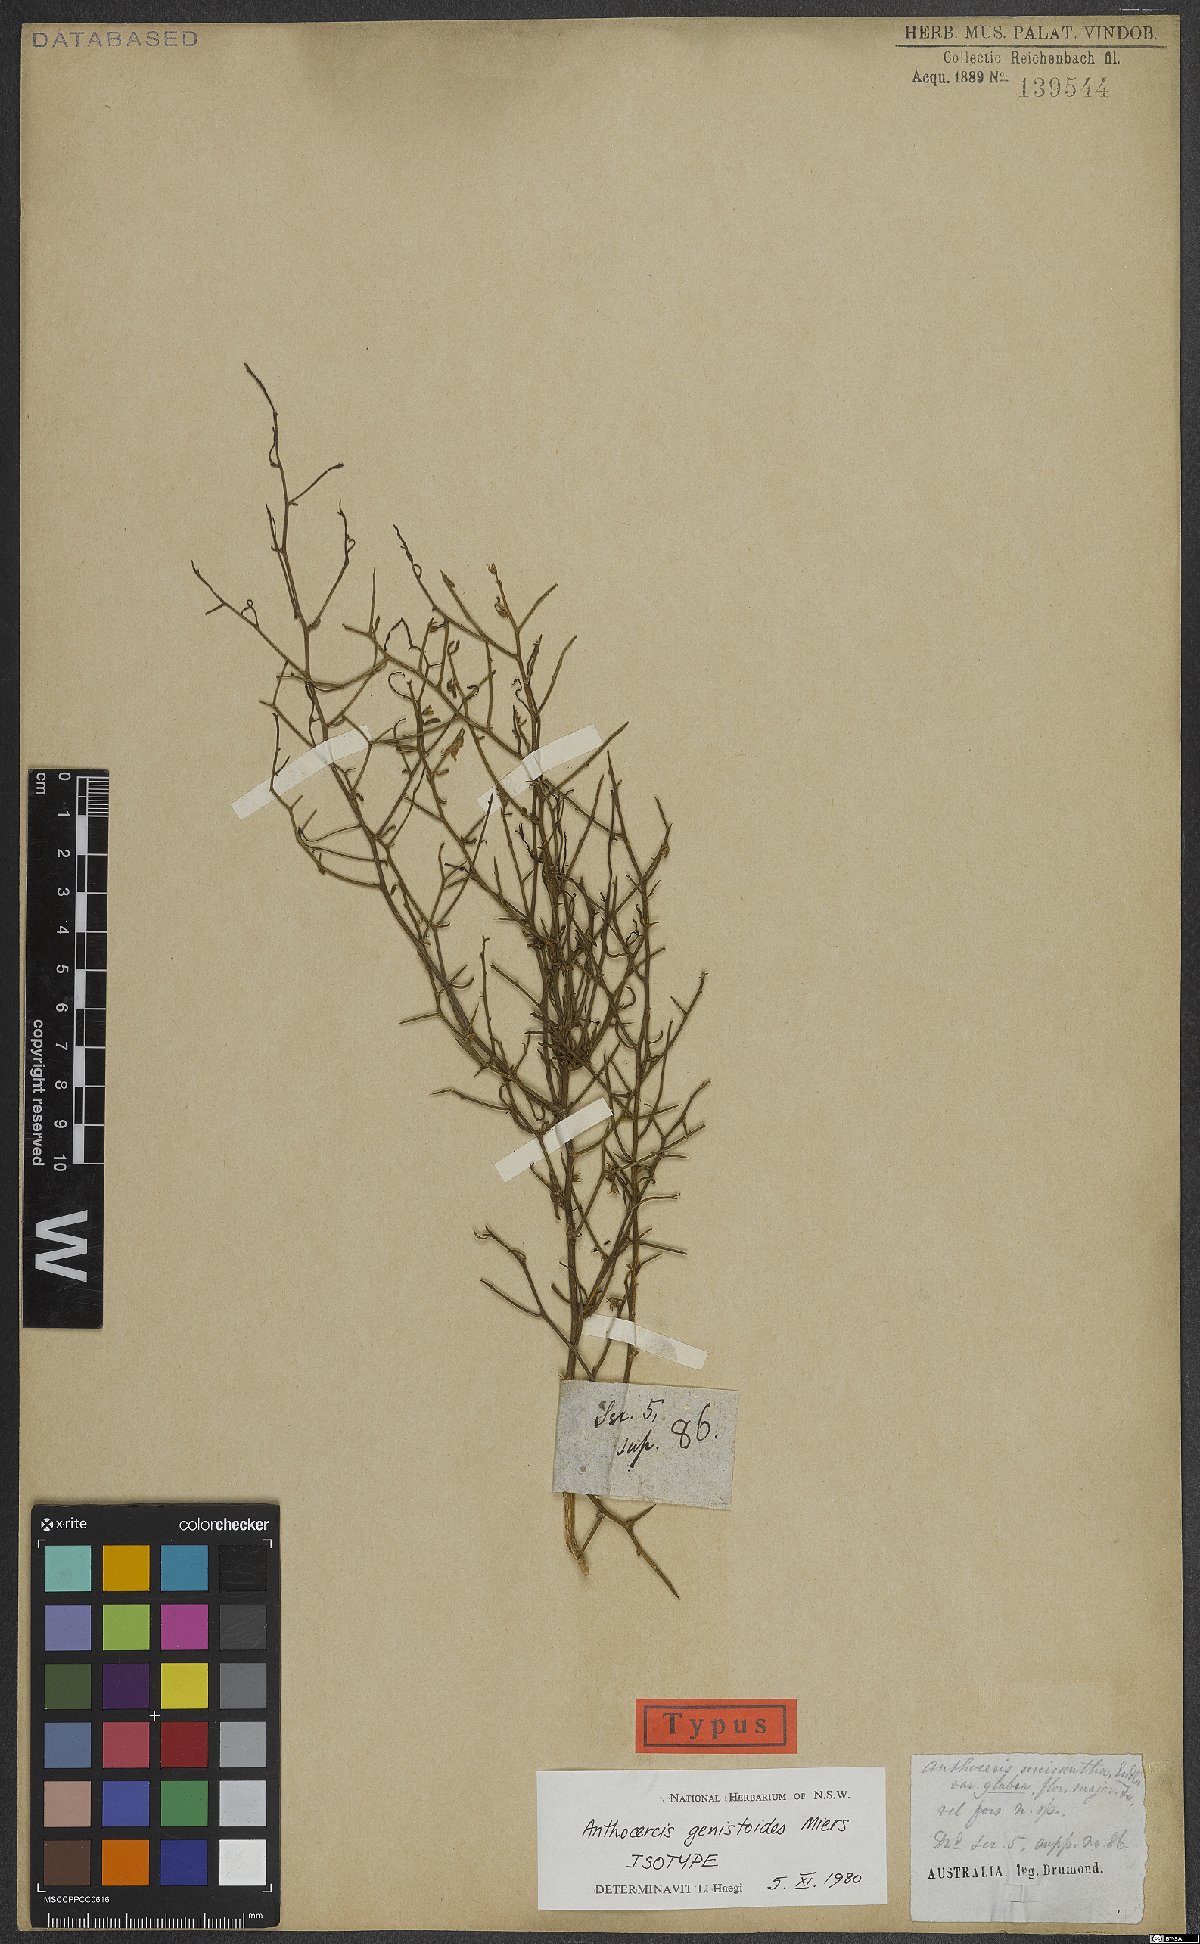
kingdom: Plantae
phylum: Tracheophyta
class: Magnoliopsida
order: Solanales
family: Solanaceae
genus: Anthocercis
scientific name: Anthocercis genistoides
